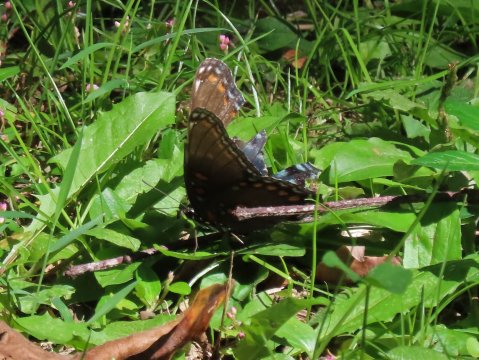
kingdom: Animalia
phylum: Arthropoda
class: Insecta
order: Lepidoptera
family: Nymphalidae
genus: Limenitis
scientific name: Limenitis arthemis
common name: Red-spotted Admiral
